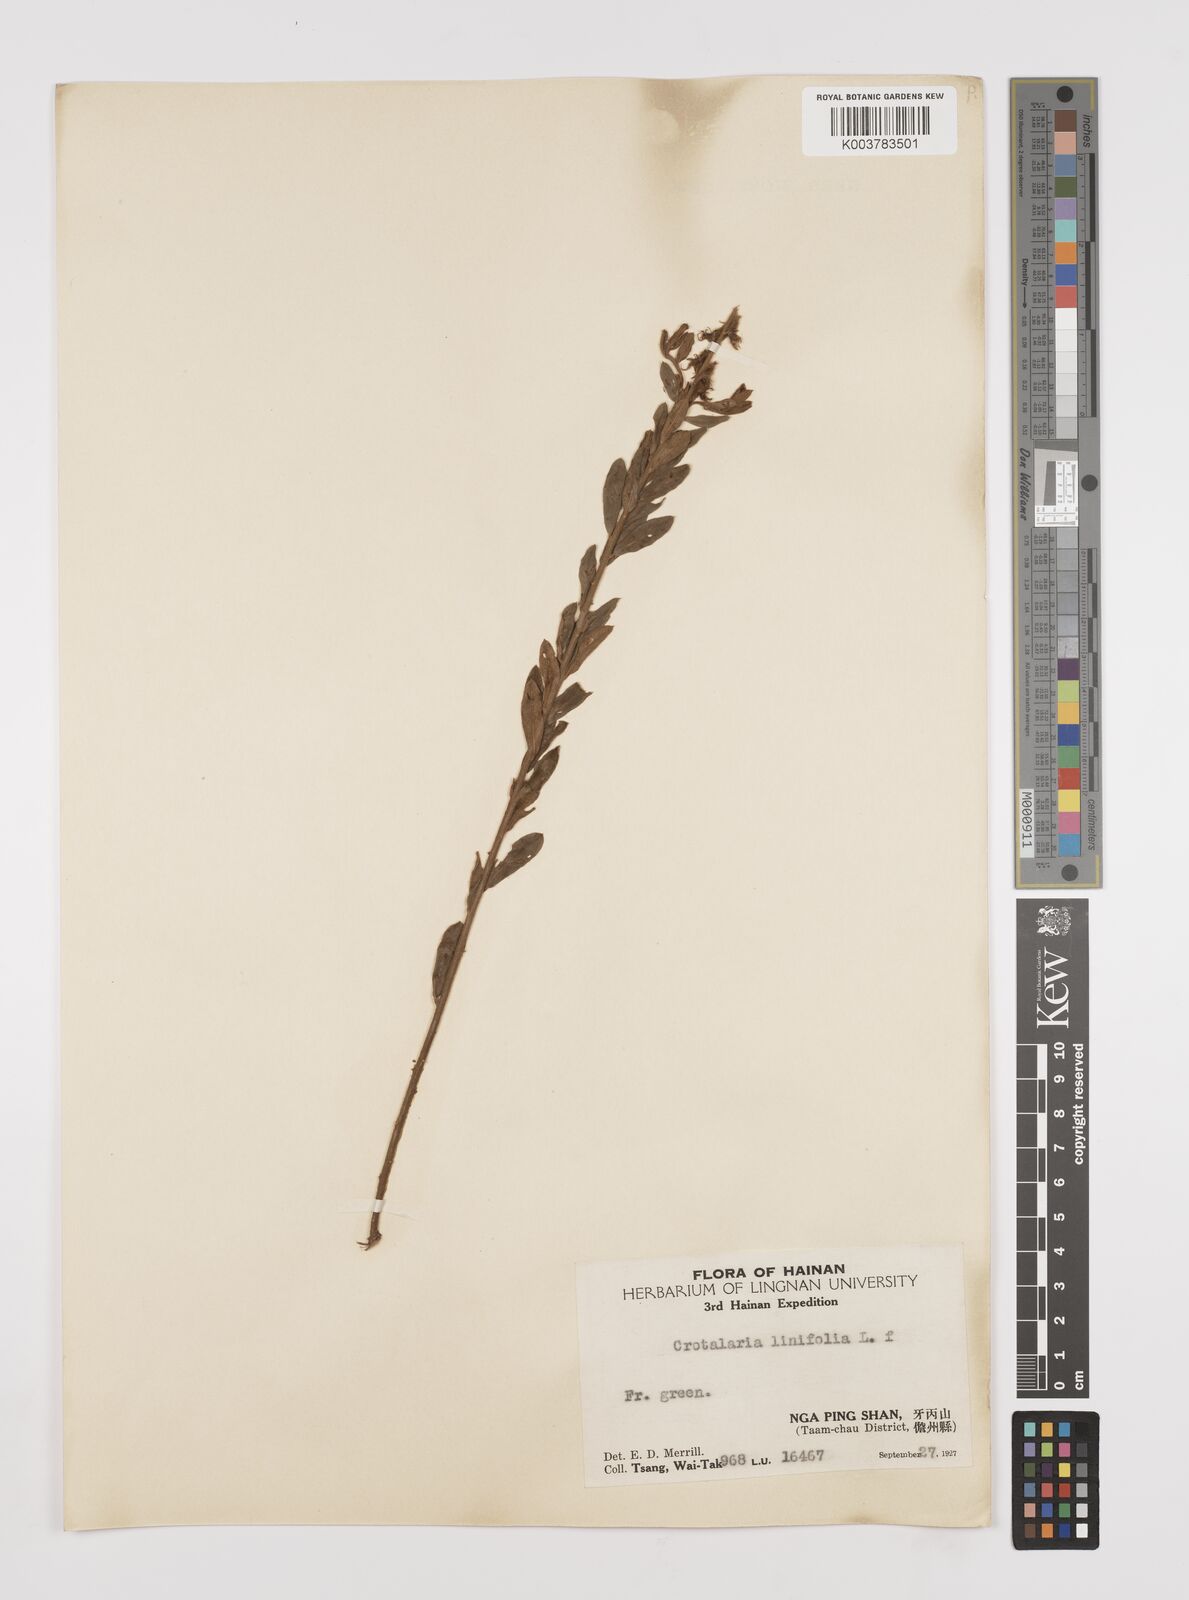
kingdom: Plantae
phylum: Tracheophyta
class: Magnoliopsida
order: Fabales
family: Fabaceae
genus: Crotalaria
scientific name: Crotalaria linifolia
